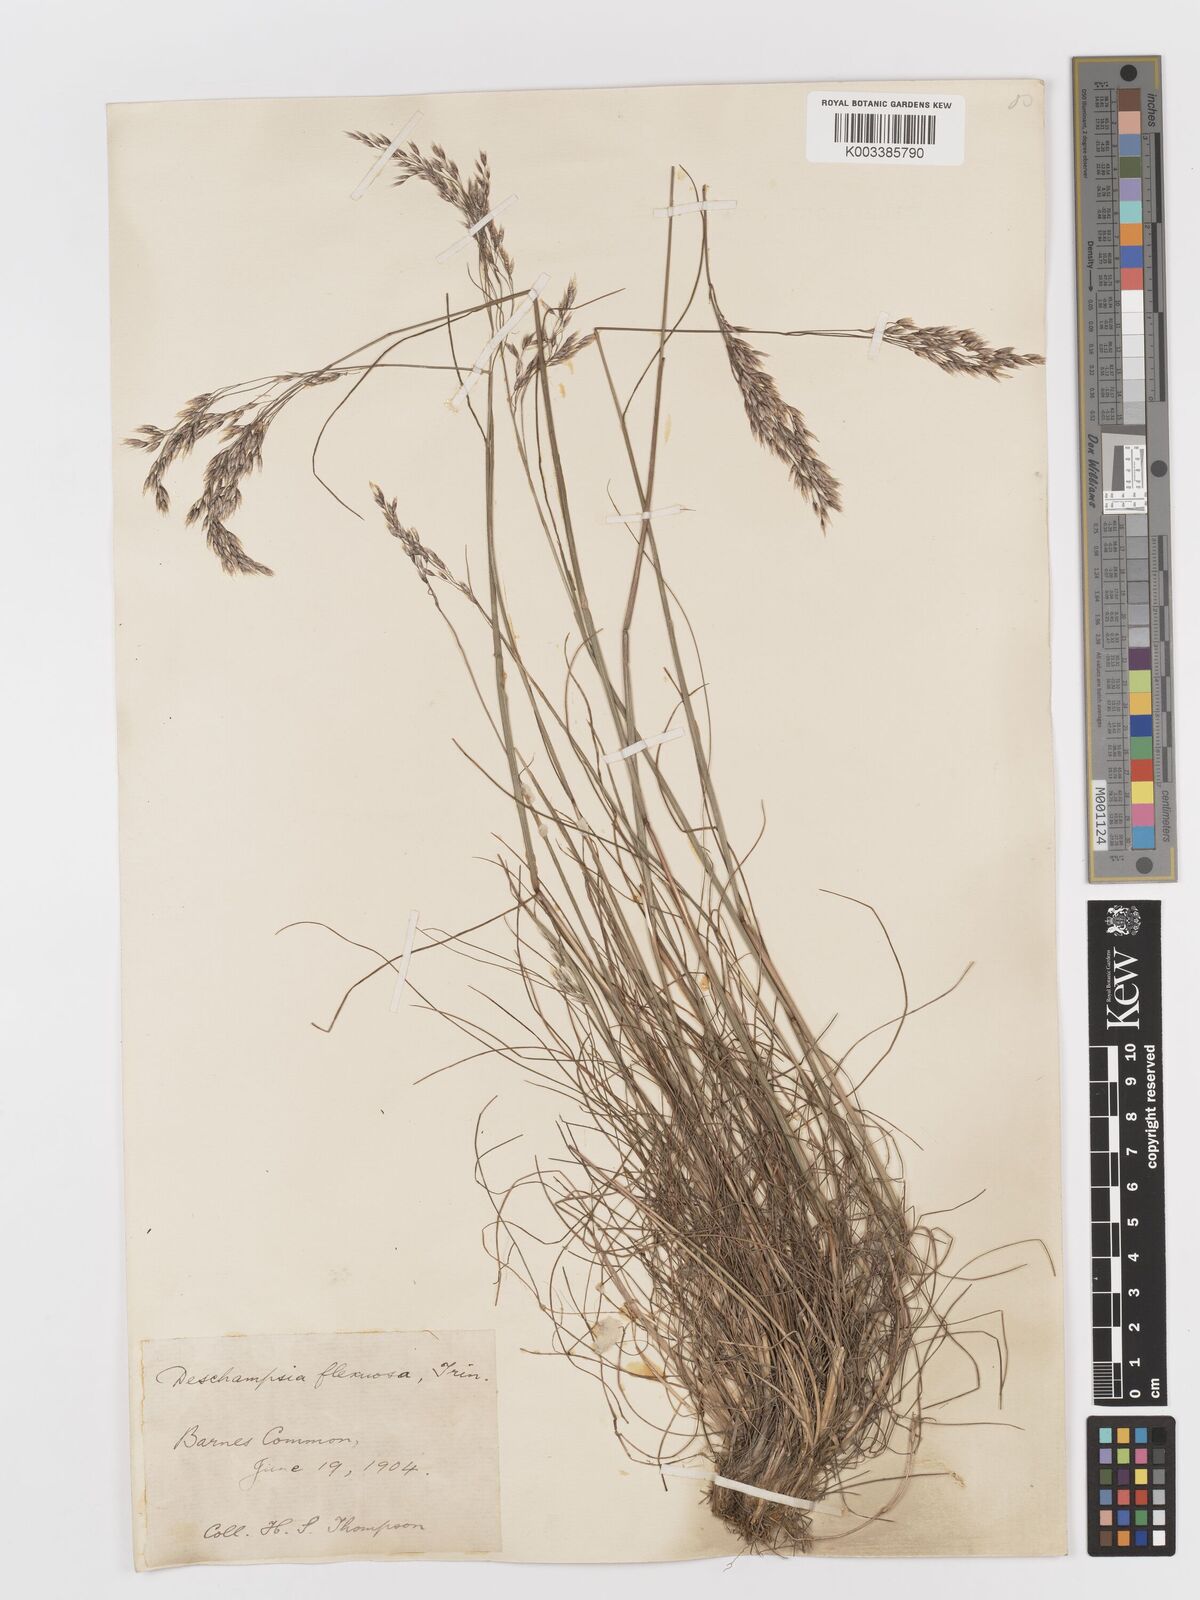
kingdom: Plantae
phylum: Tracheophyta
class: Liliopsida
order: Poales
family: Poaceae
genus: Avenella
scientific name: Avenella flexuosa
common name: Wavy hairgrass
